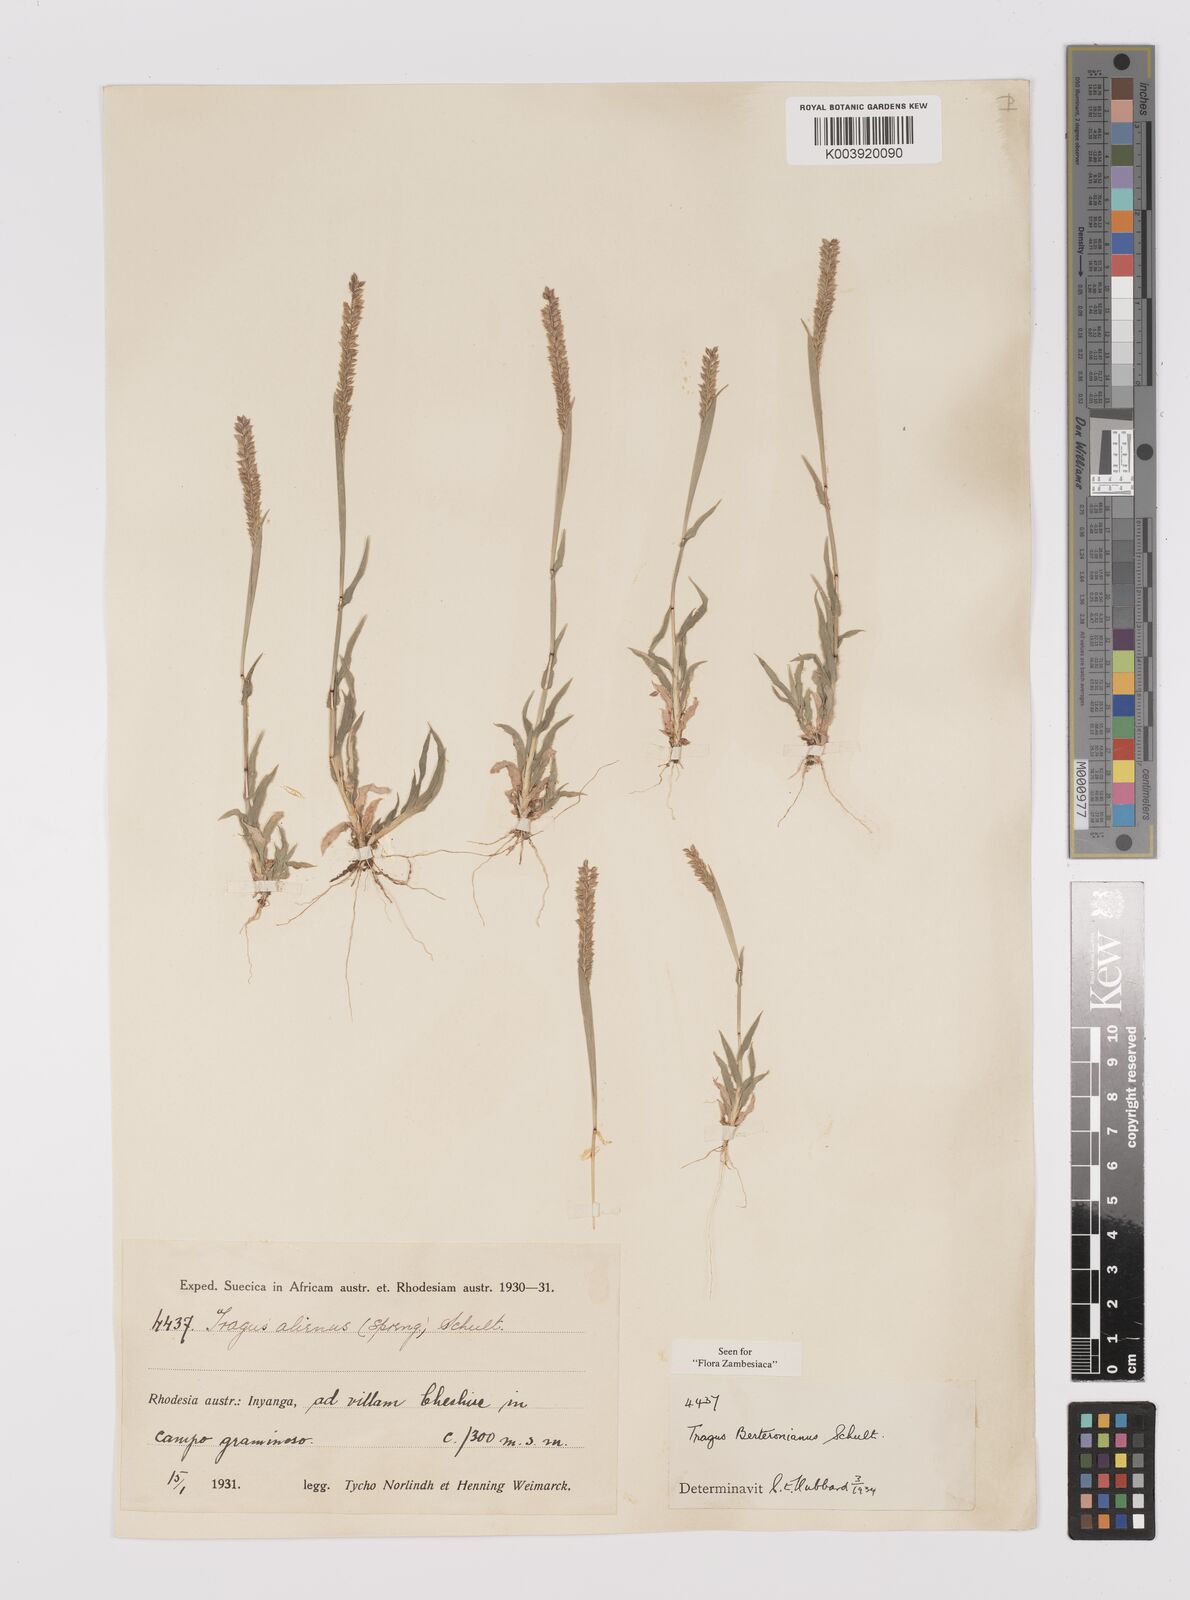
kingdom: Plantae
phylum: Tracheophyta
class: Liliopsida
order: Poales
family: Poaceae
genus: Tragus
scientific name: Tragus berteronianus
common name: African bur-grass
